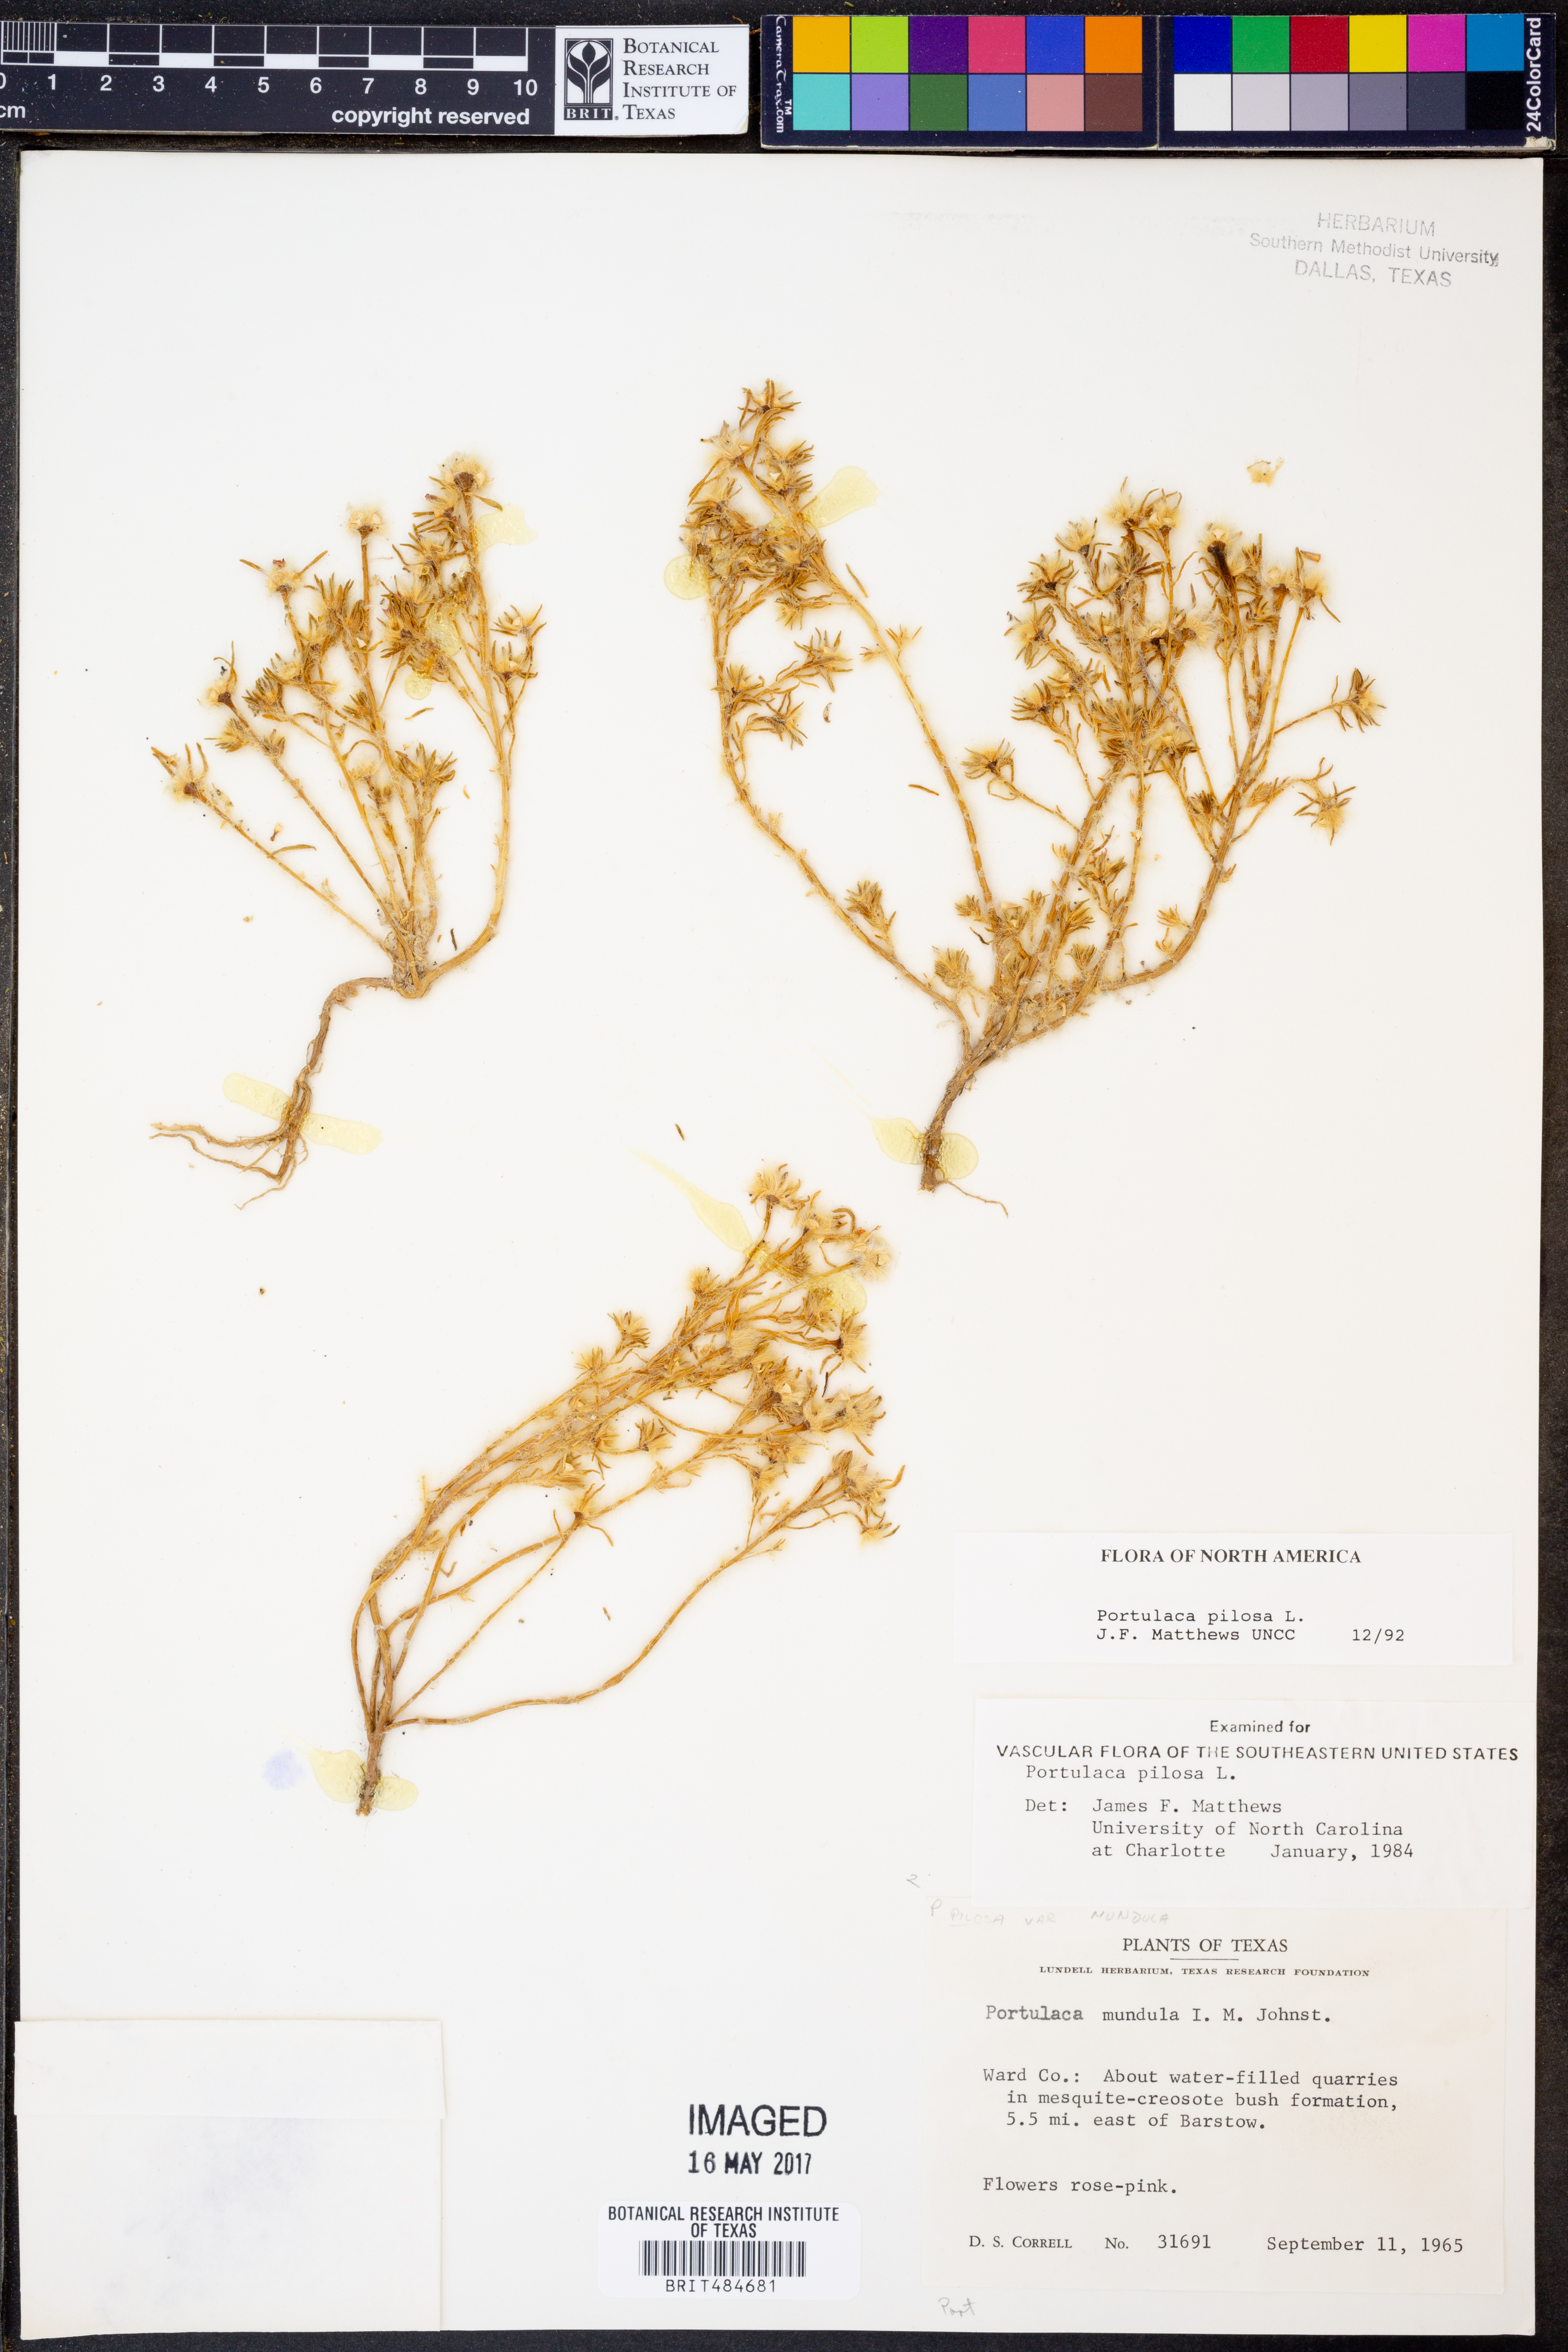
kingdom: Plantae
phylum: Tracheophyta
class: Magnoliopsida
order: Caryophyllales
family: Portulacaceae
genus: Portulaca
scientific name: Portulaca pilosa
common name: Kiss me quick
